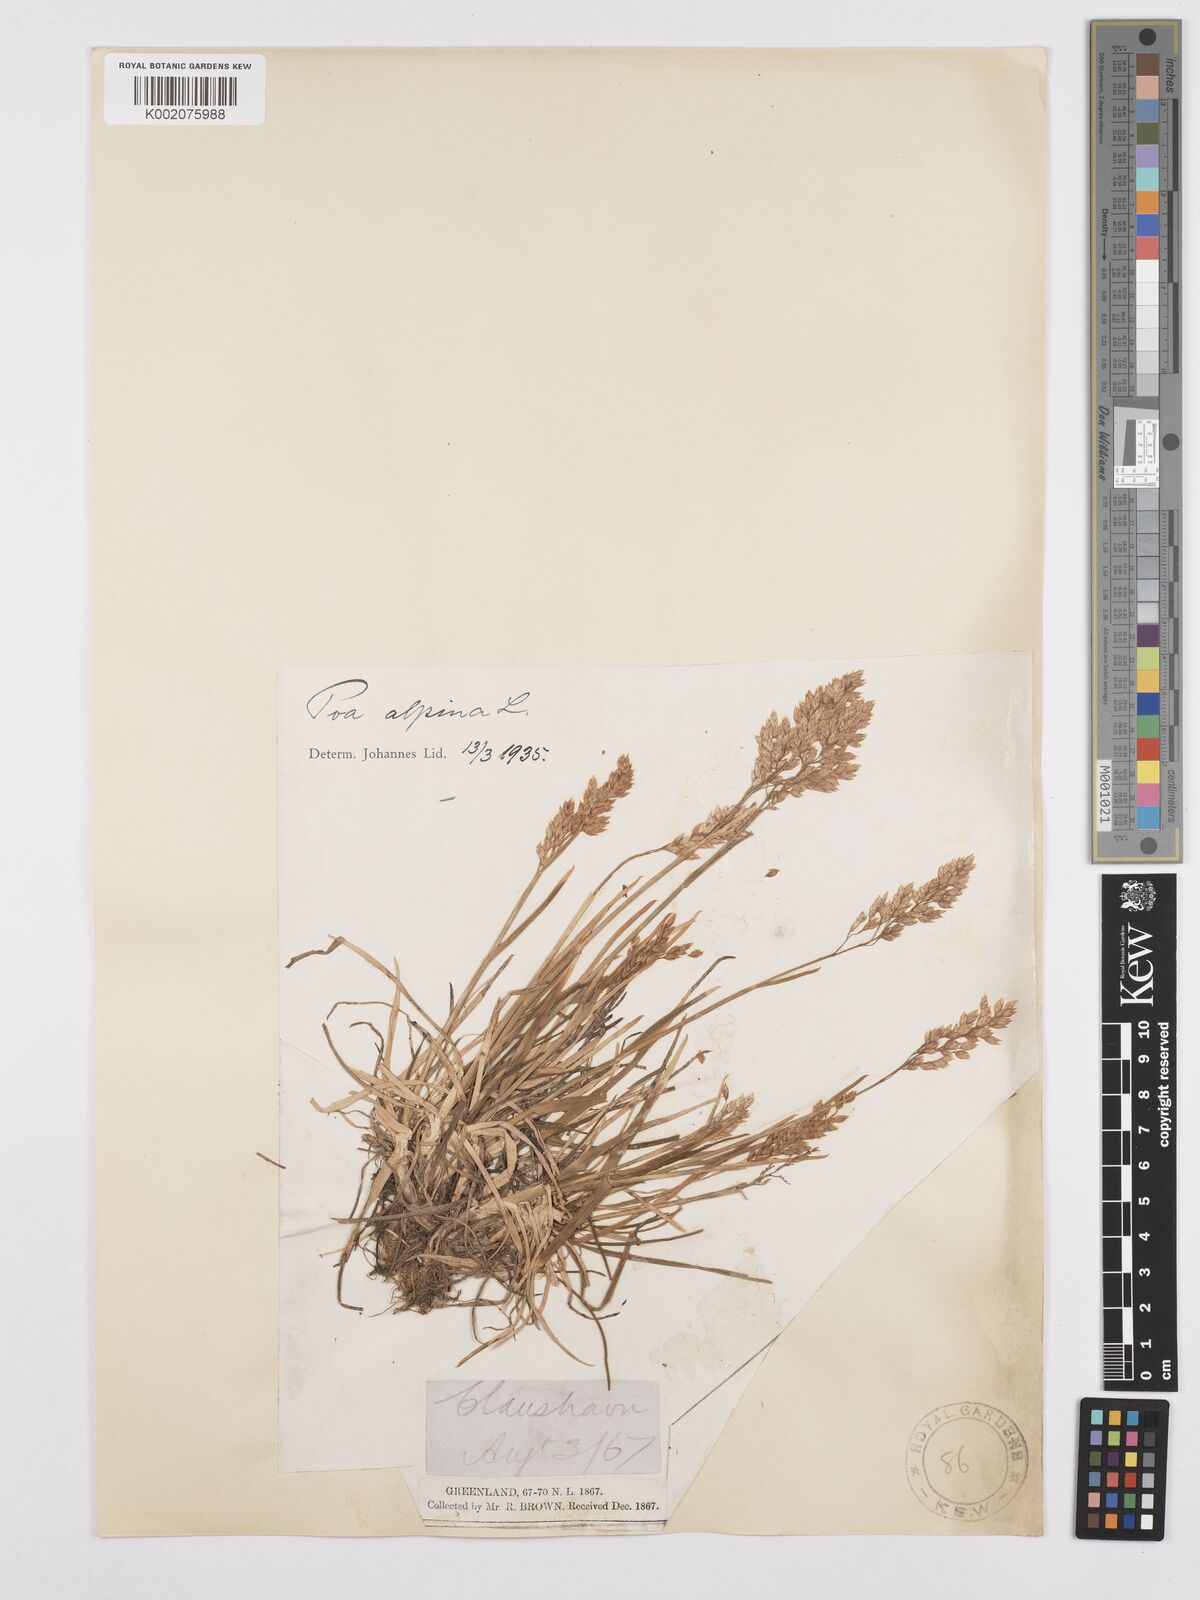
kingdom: Plantae
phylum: Tracheophyta
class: Liliopsida
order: Poales
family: Poaceae
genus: Poa
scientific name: Poa alpina
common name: Alpine bluegrass
